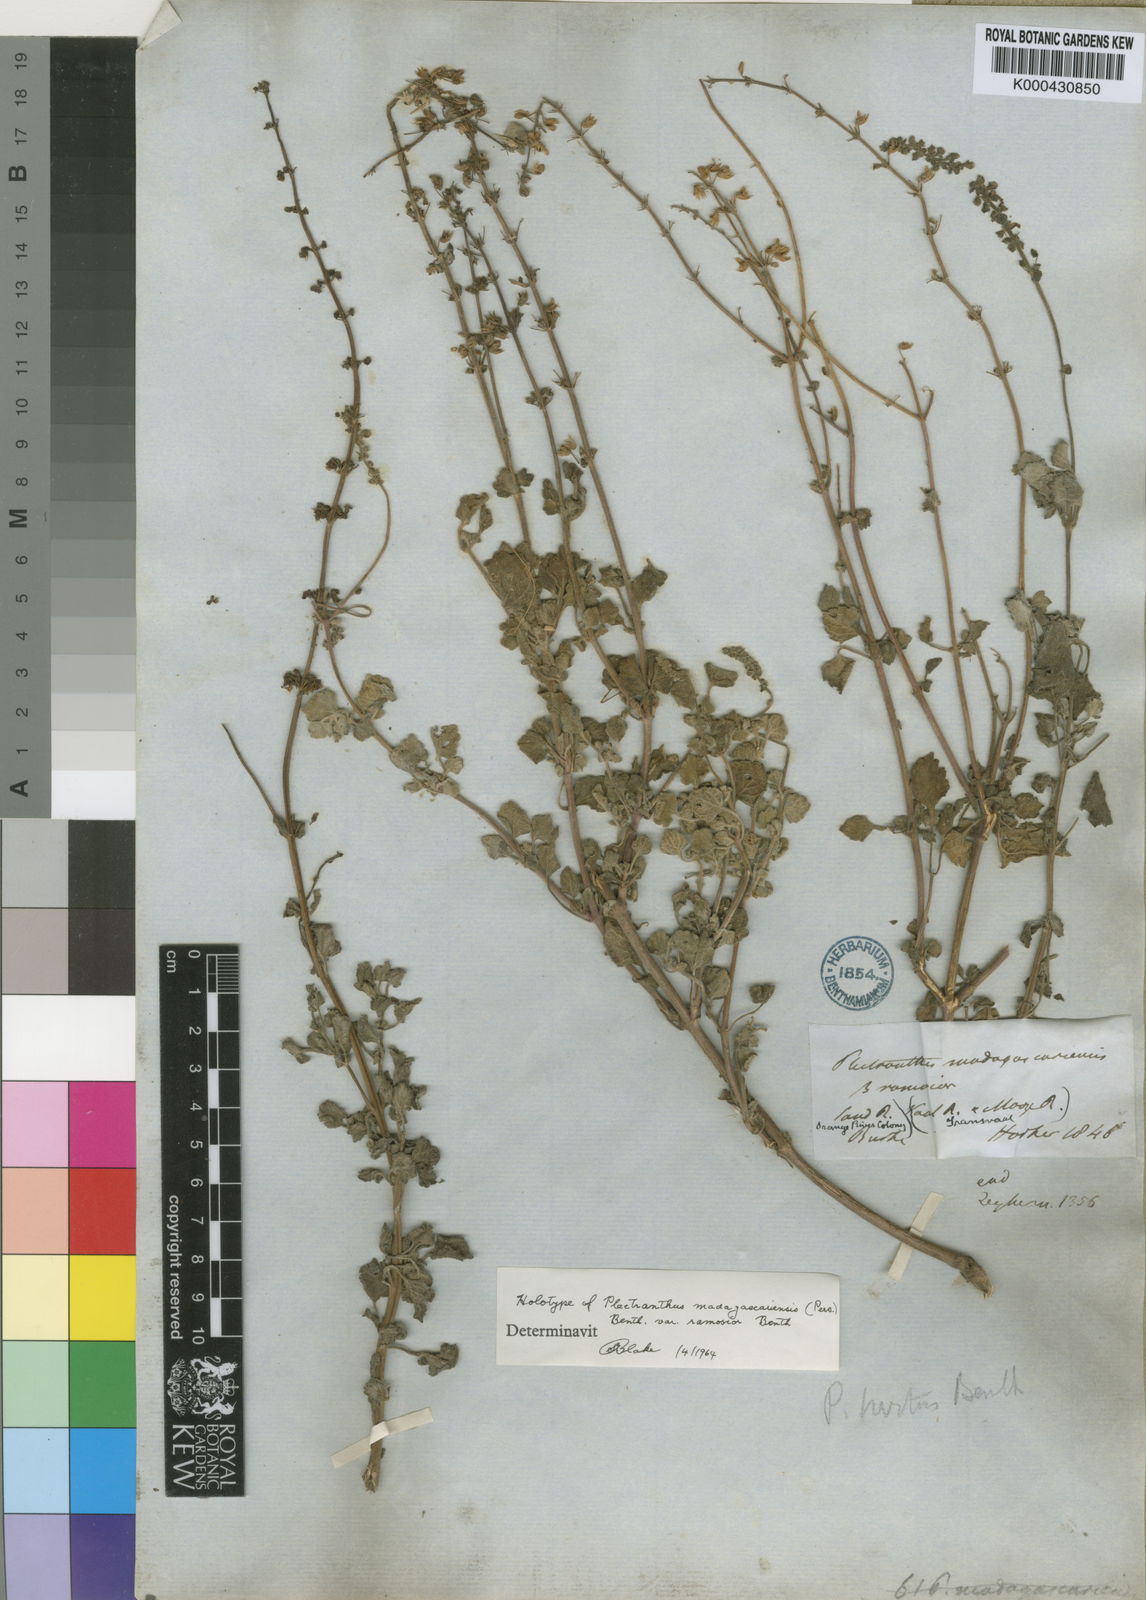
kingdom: Plantae
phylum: Tracheophyta
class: Magnoliopsida
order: Lamiales
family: Lamiaceae
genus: Coleus
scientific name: Coleus hadiensis
